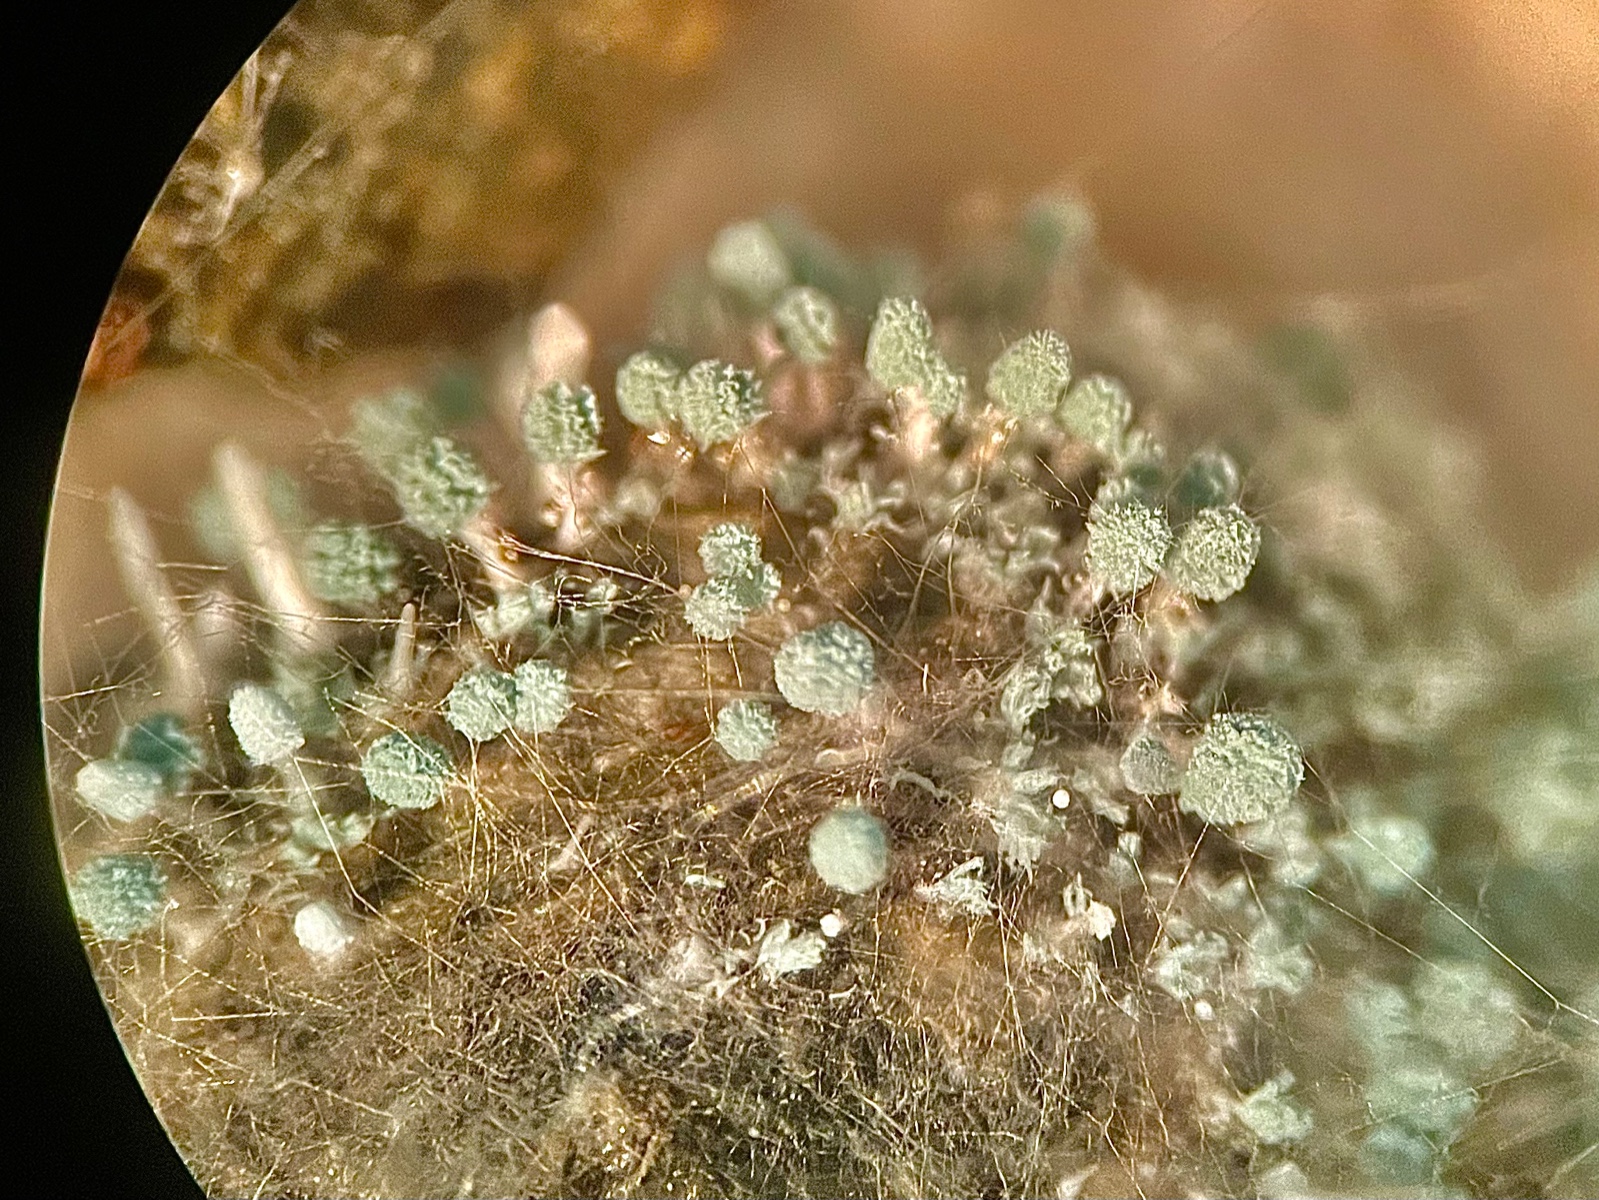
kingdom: Fungi
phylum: Ascomycota
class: Eurotiomycetes
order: Eurotiales
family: Aspergillaceae
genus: Penicillium
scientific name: Penicillium coprophilum
